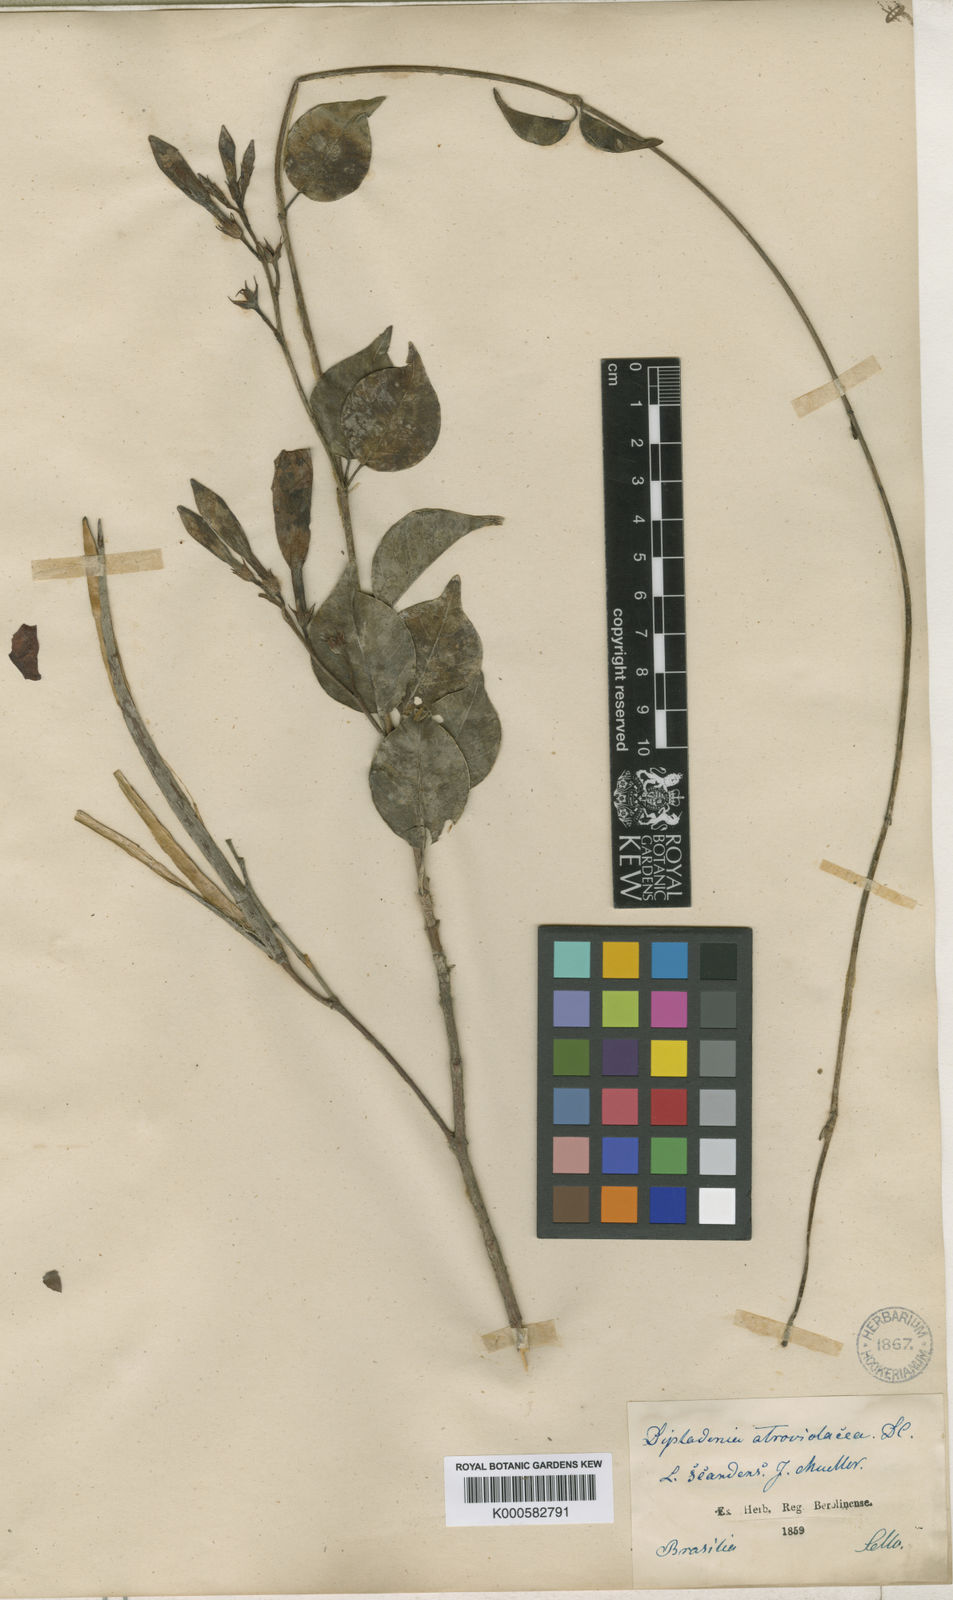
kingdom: Plantae
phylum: Tracheophyta
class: Magnoliopsida
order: Gentianales
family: Apocynaceae
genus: Mandevilla
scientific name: Mandevilla atroviolacea
